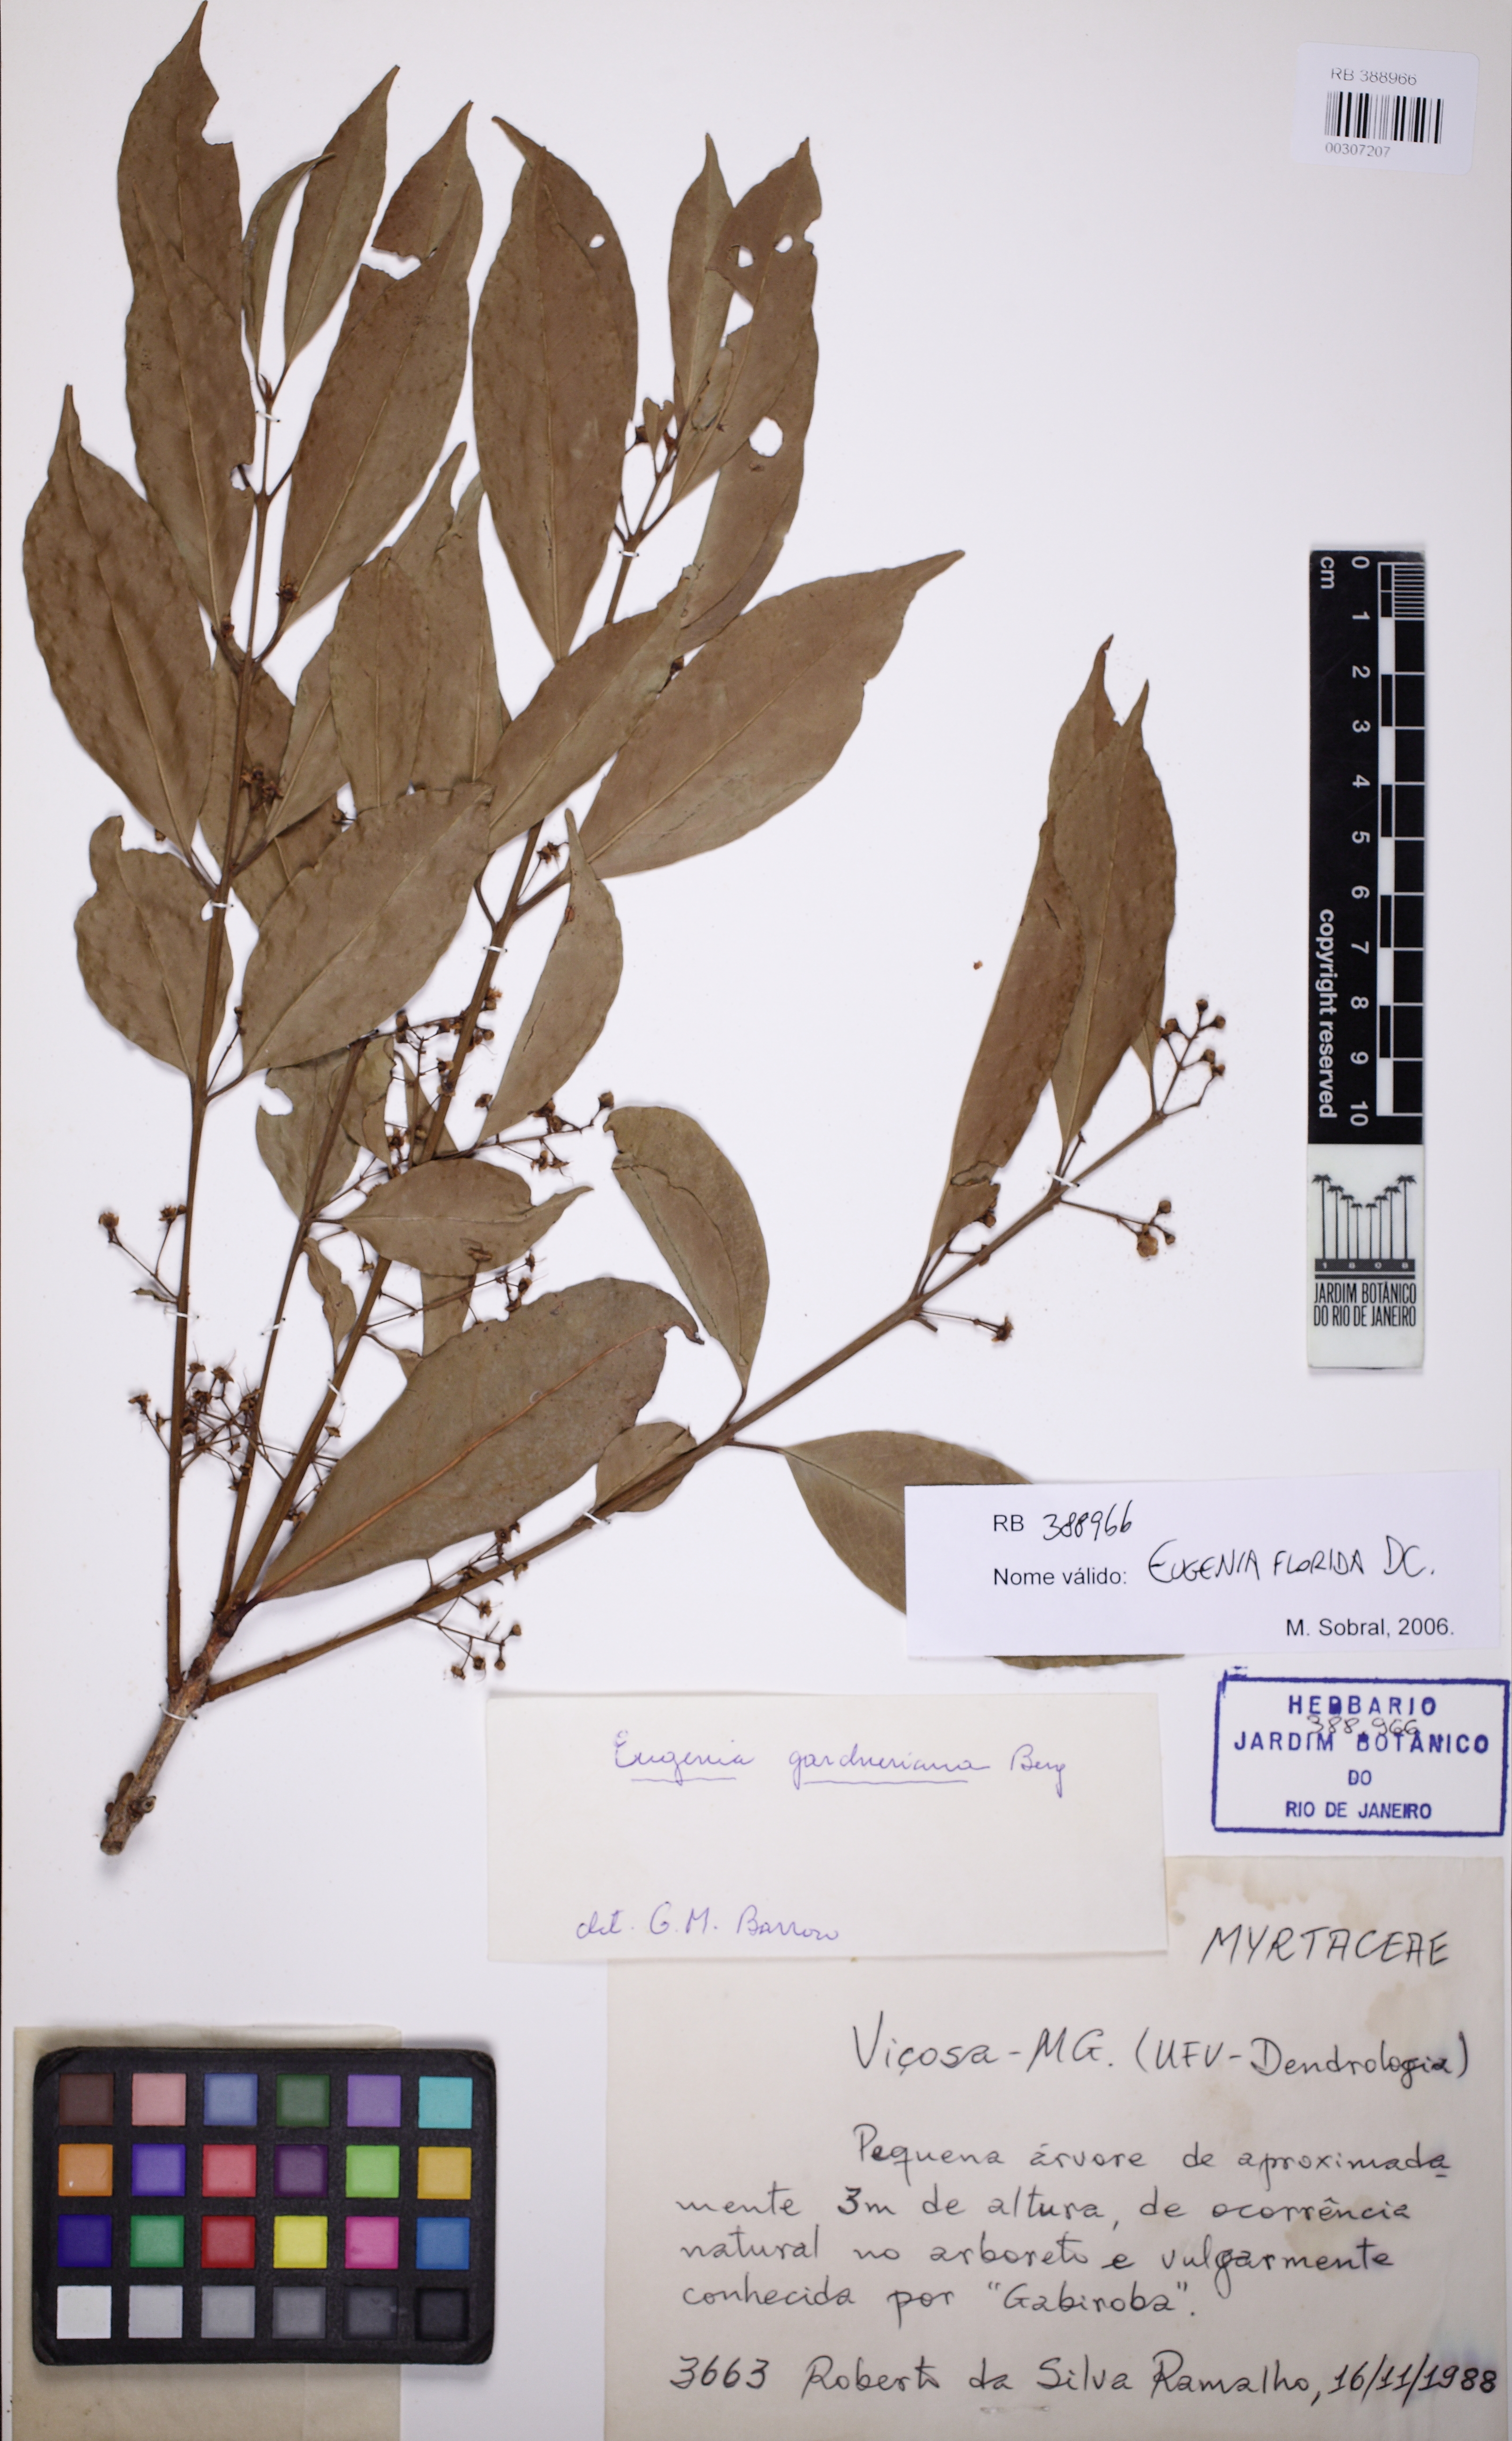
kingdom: Plantae
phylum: Tracheophyta
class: Magnoliopsida
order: Myrtales
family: Myrtaceae
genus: Eugenia
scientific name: Eugenia florida
